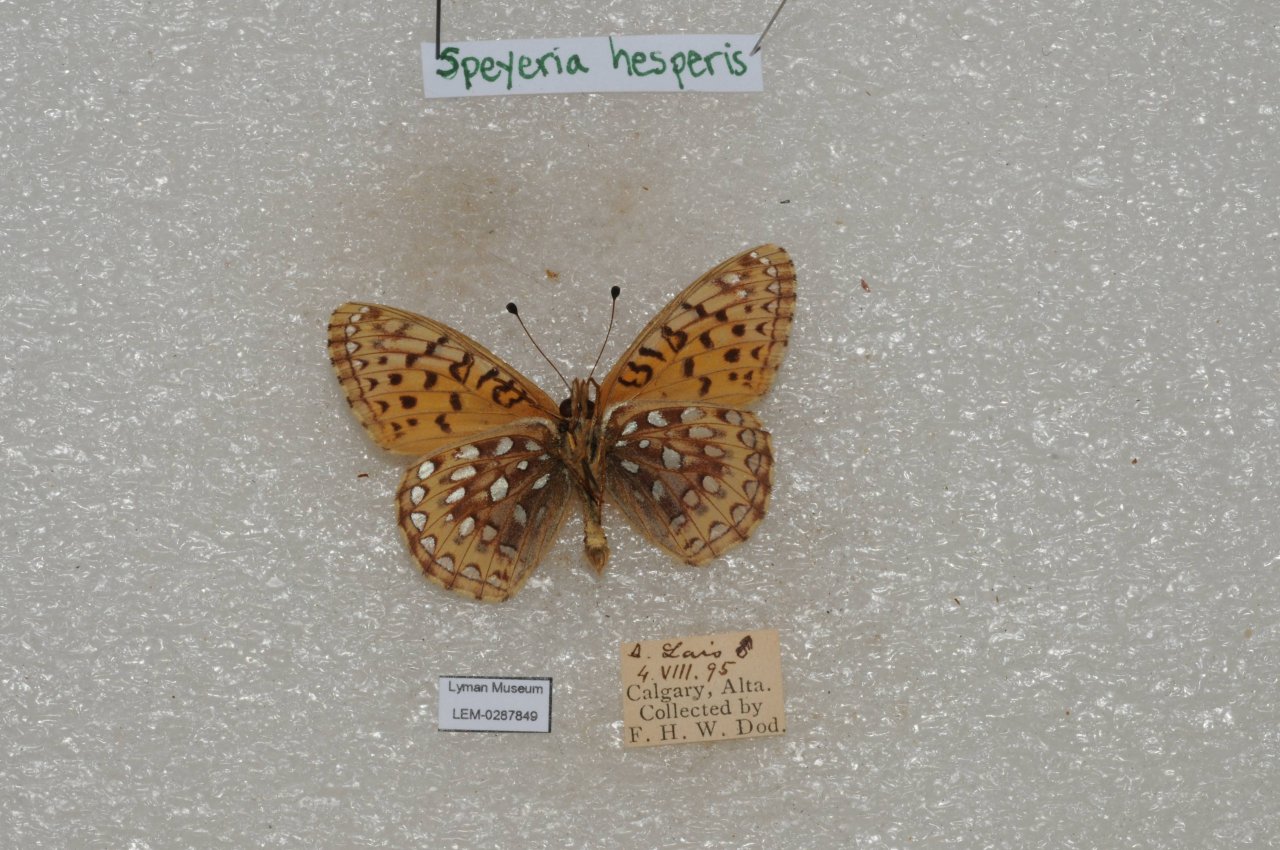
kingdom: Animalia
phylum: Arthropoda
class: Insecta
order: Lepidoptera
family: Nymphalidae
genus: Speyeria
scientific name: Speyeria atlantis
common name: Northwestern Fritillary
